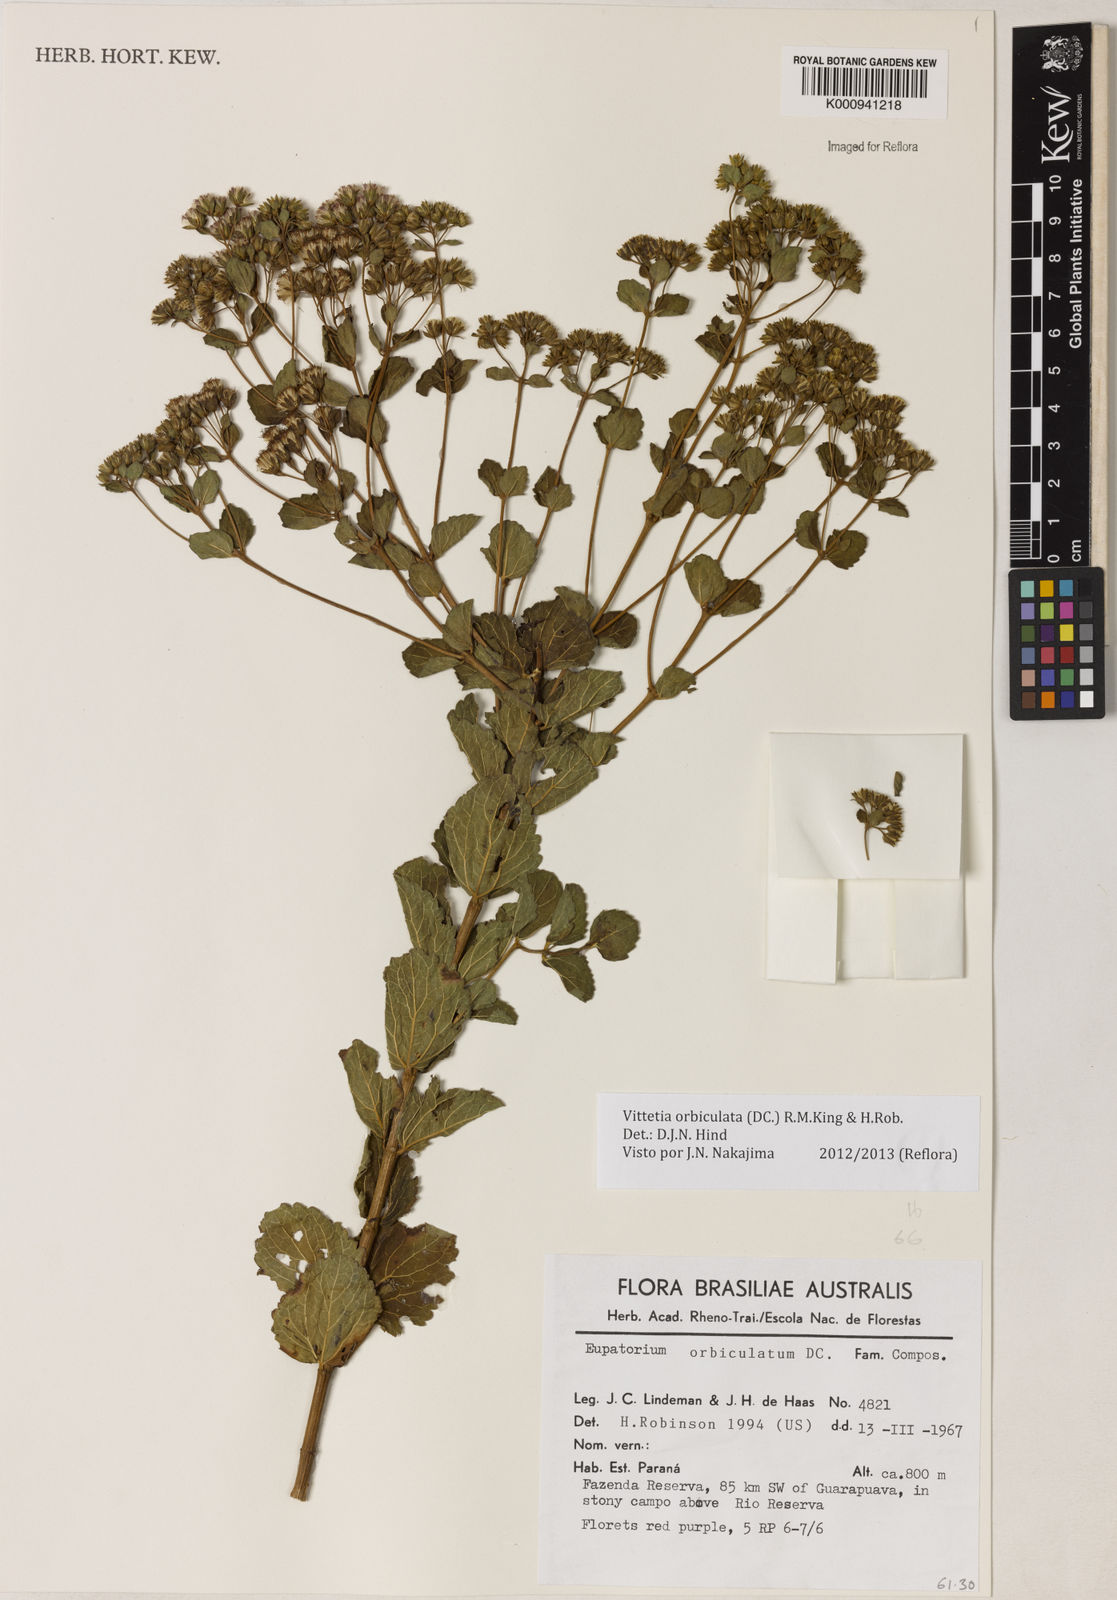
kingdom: Plantae
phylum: Tracheophyta
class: Magnoliopsida
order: Asterales
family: Asteraceae
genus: Vittetia
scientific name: Vittetia orbiculata
